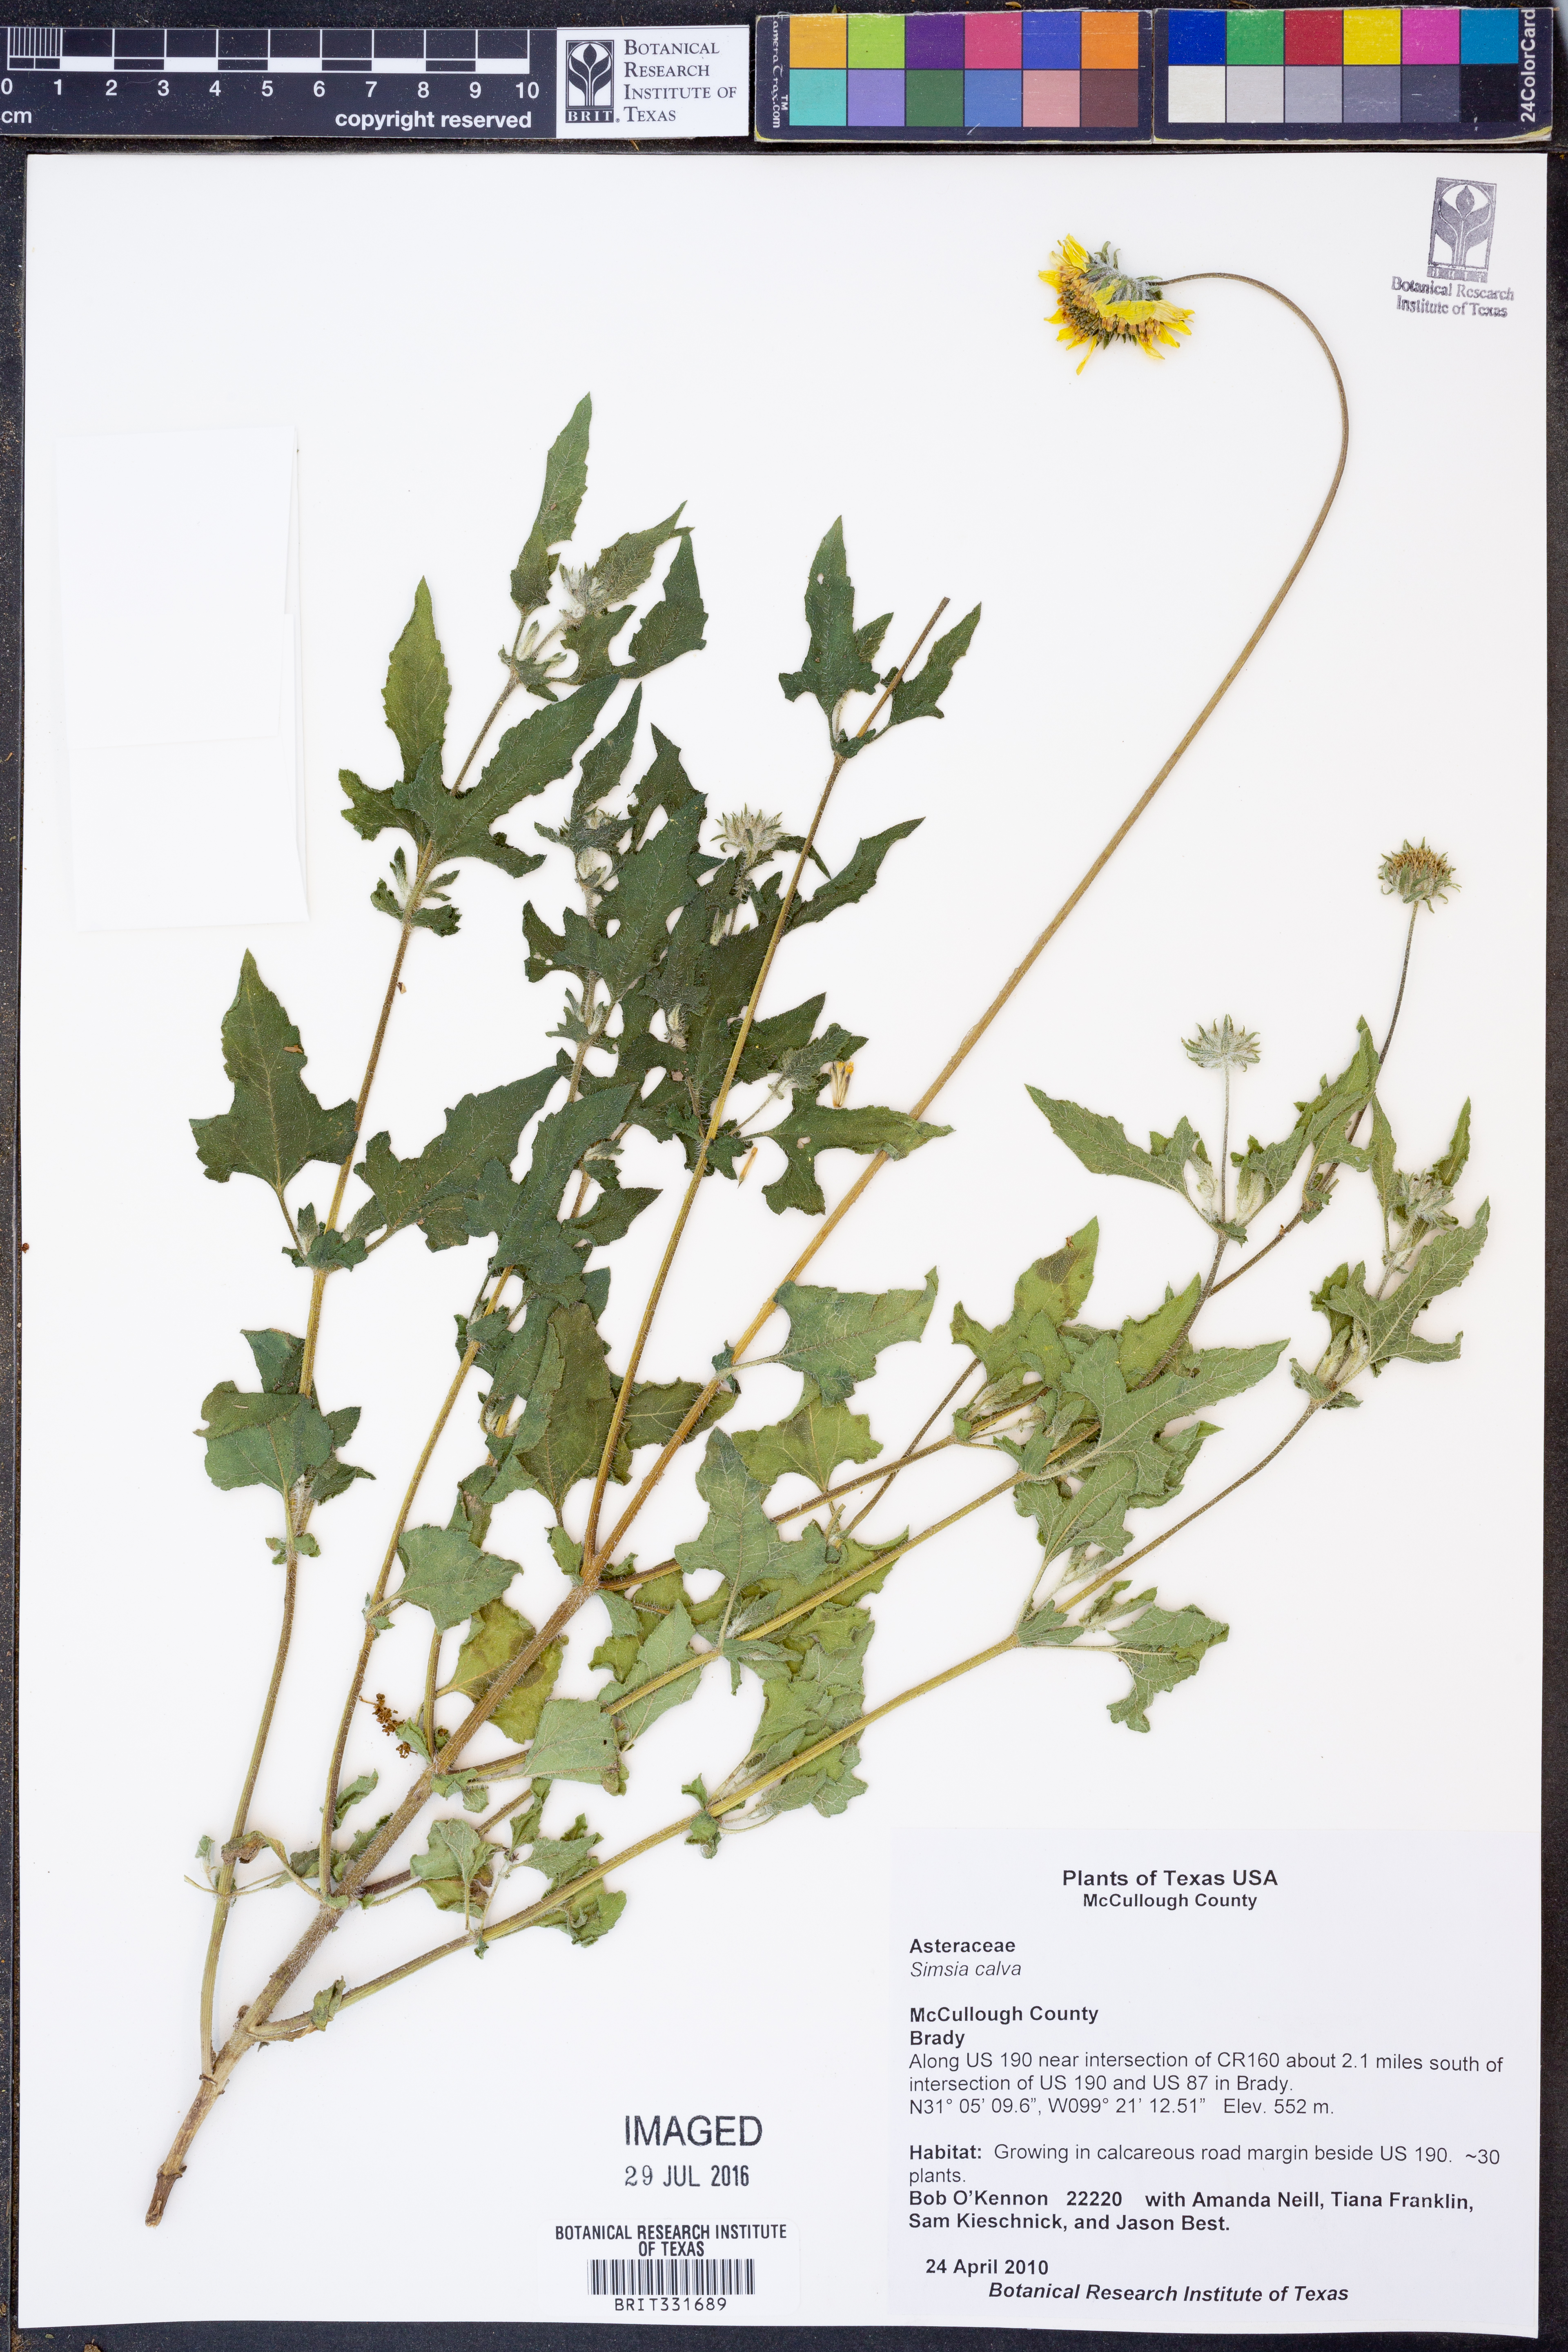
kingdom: Plantae
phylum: Tracheophyta
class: Magnoliopsida
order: Asterales
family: Asteraceae
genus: Simsia
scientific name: Simsia calva
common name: Awnless bush-sunflower
